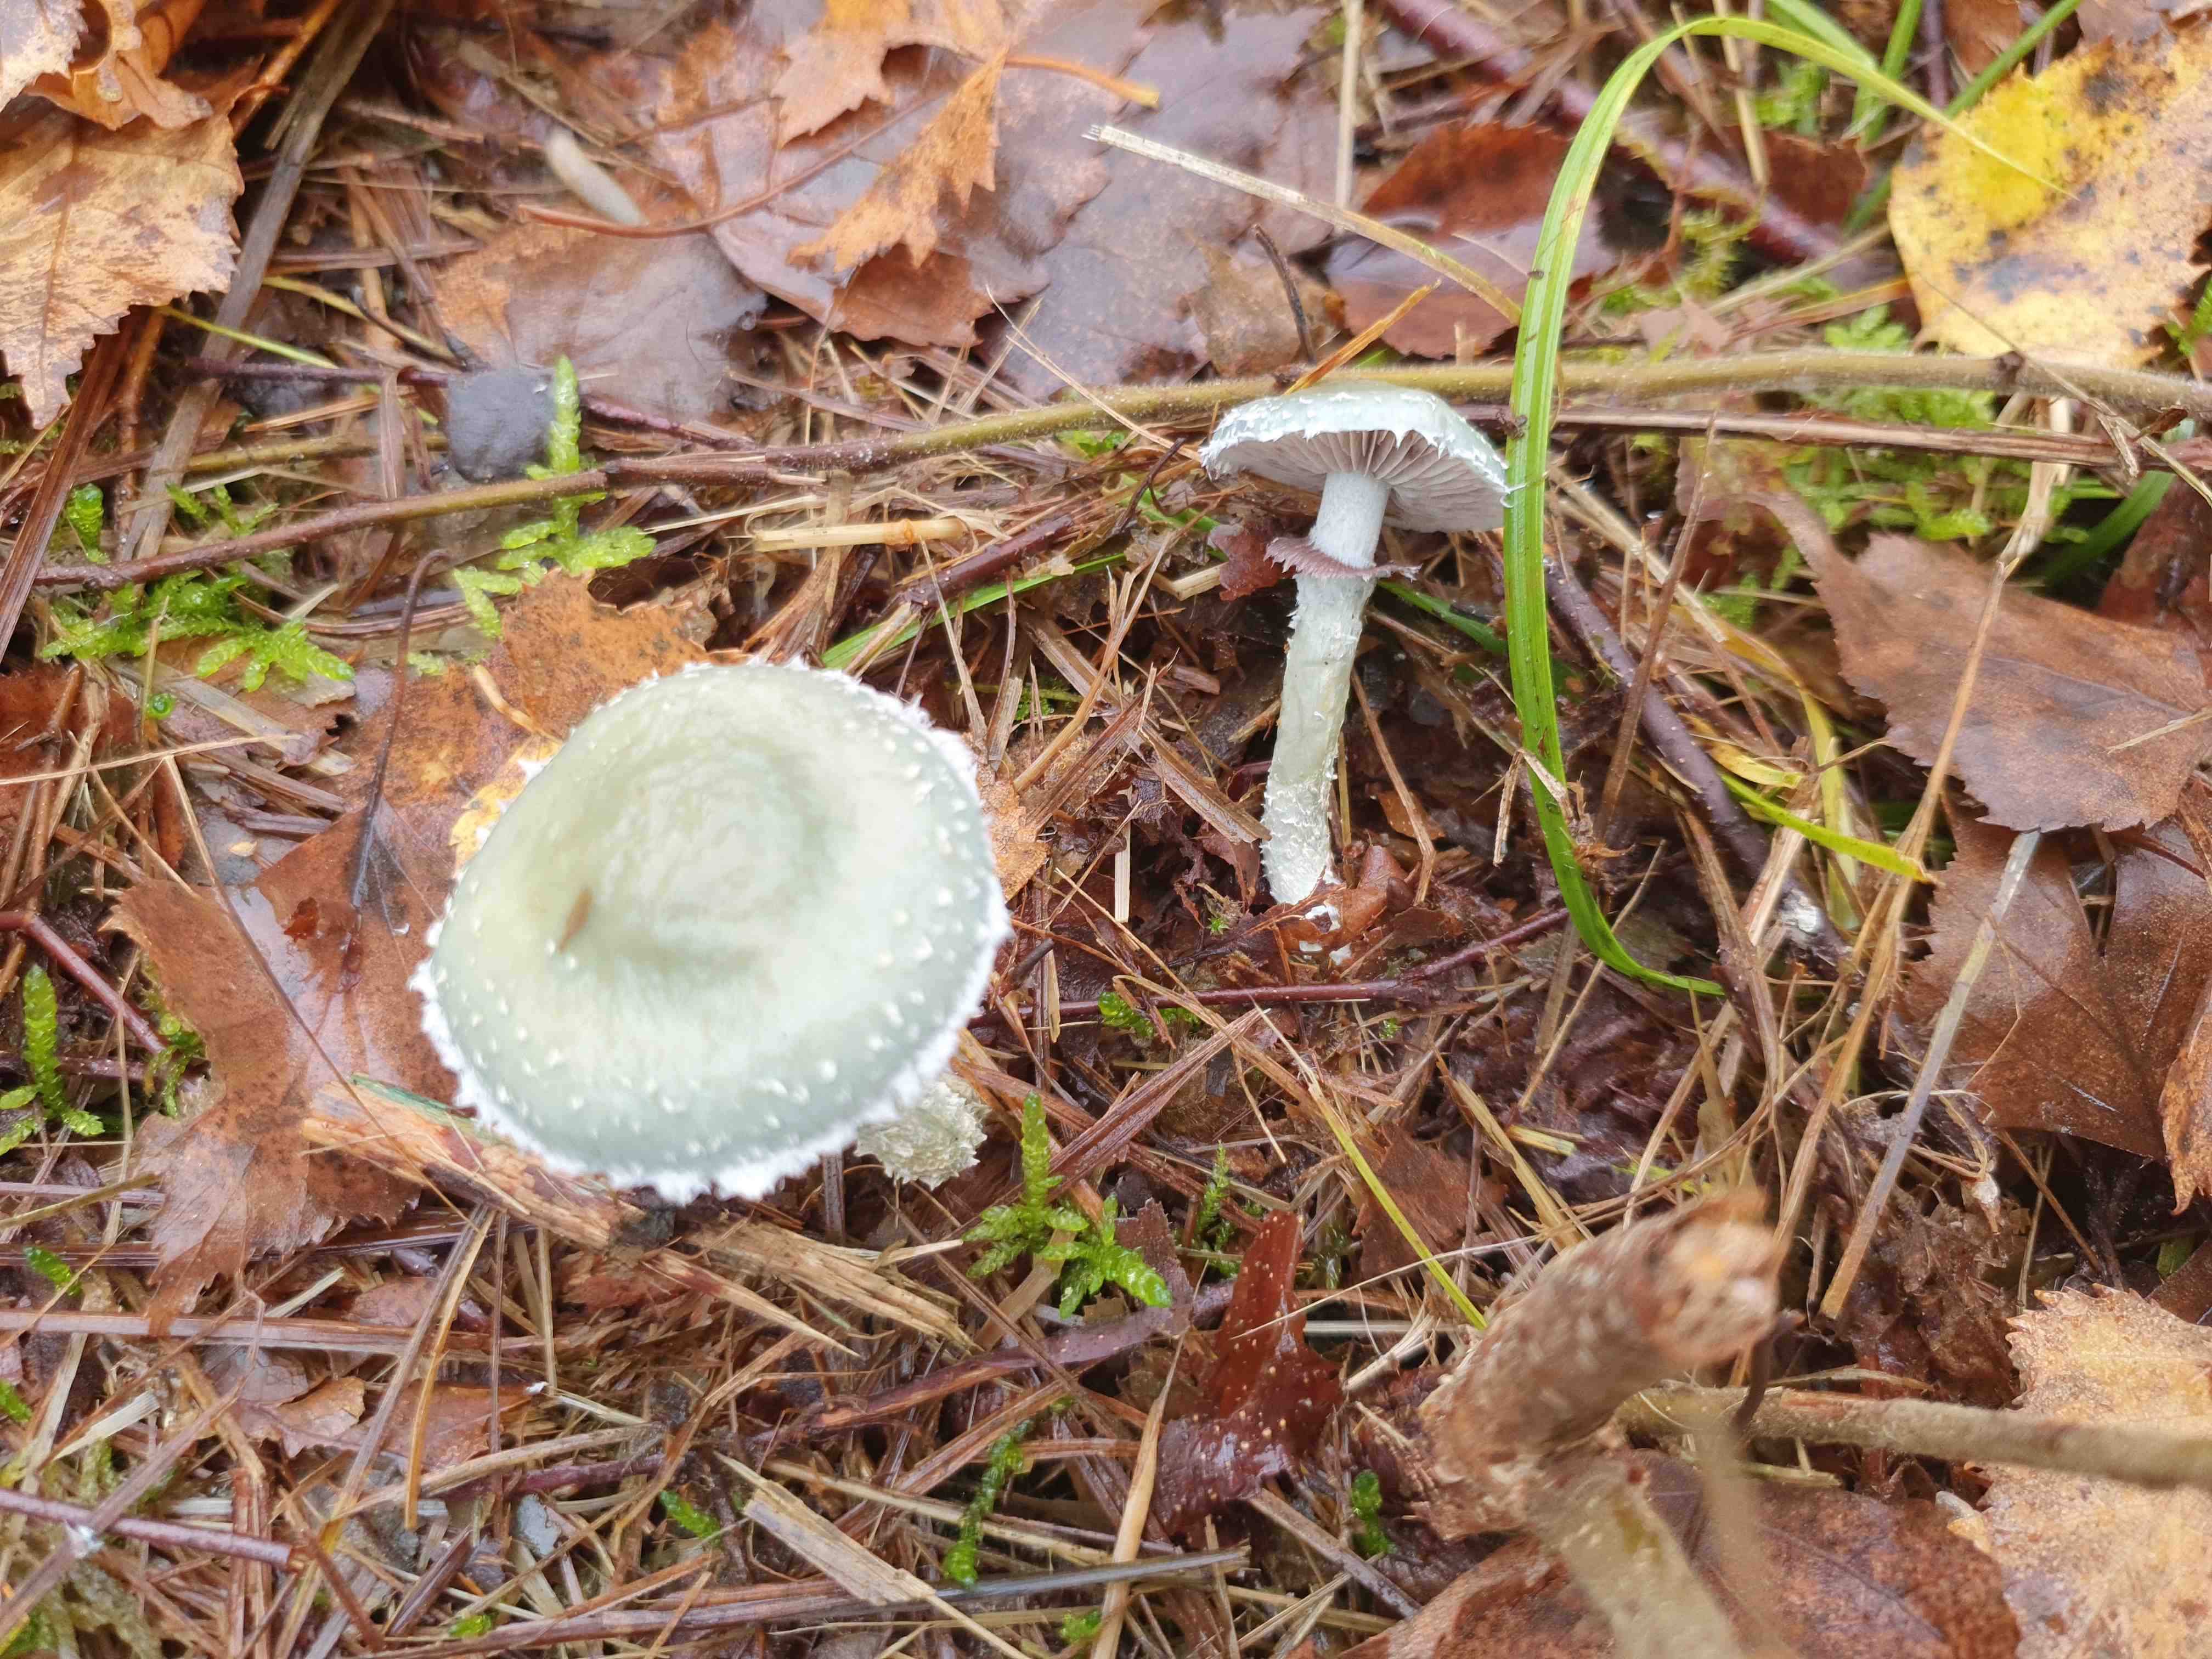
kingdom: Fungi
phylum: Basidiomycota
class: Agaricomycetes
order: Agaricales
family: Strophariaceae
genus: Stropharia
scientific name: Stropharia aeruginosa
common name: spanskgrøn bredblad
